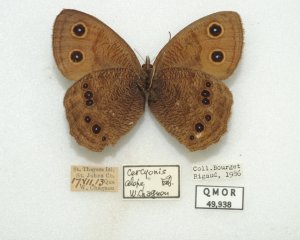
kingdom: Animalia
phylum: Arthropoda
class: Insecta
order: Lepidoptera
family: Nymphalidae
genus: Cercyonis
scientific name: Cercyonis pegala
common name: Common Wood-Nymph
